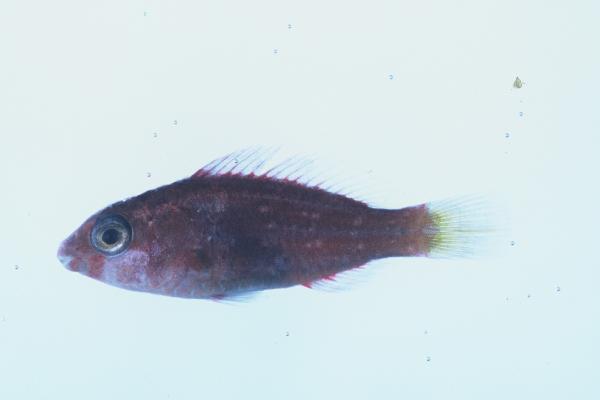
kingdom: Animalia
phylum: Chordata
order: Perciformes
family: Scaridae
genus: Scarus
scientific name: Scarus
